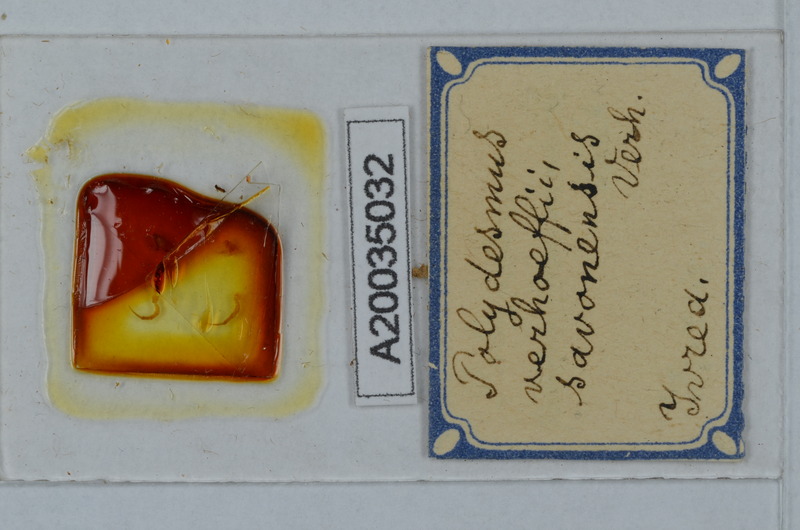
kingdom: Animalia
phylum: Arthropoda
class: Diplopoda
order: Polydesmida
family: Polydesmidae
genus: Polydesmus
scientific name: Polydesmus angustus
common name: Flat millipede
